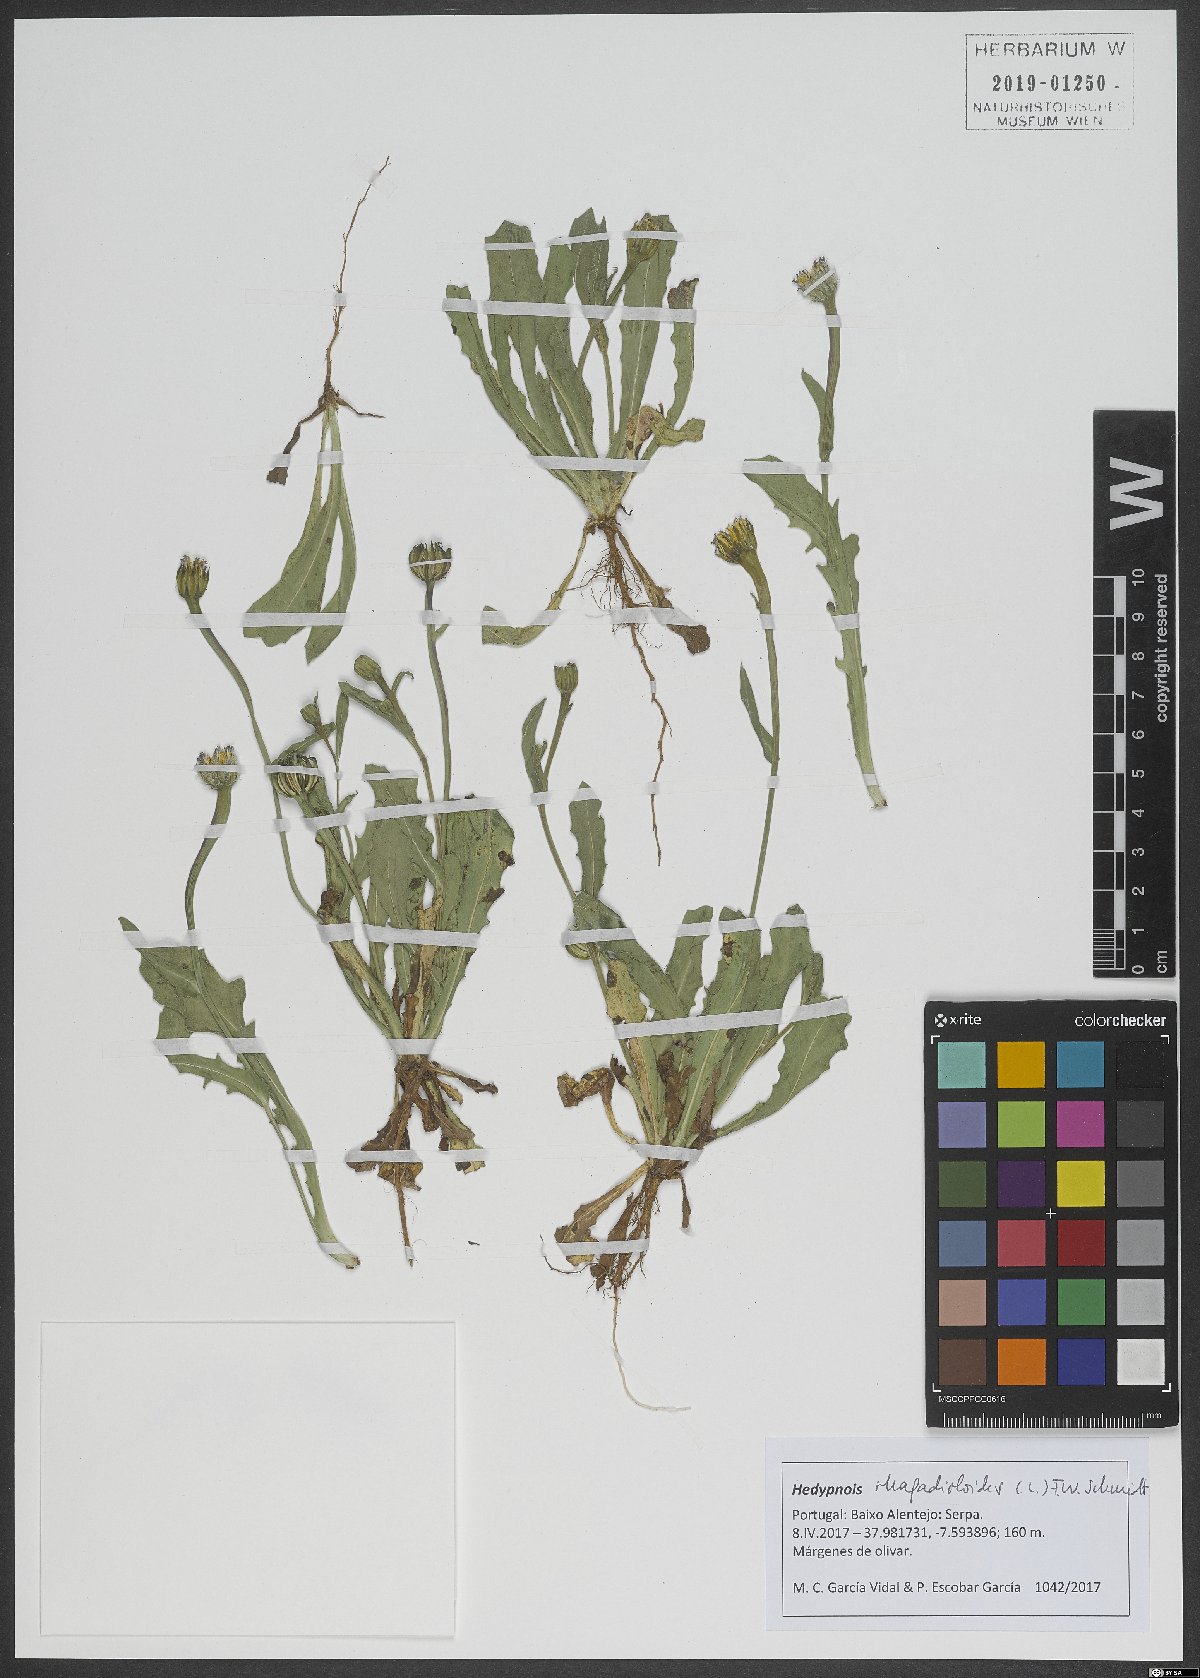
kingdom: Plantae
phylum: Tracheophyta
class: Magnoliopsida
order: Asterales
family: Asteraceae
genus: Hedypnois
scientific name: Hedypnois rhagadioloides
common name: Cretan weed
